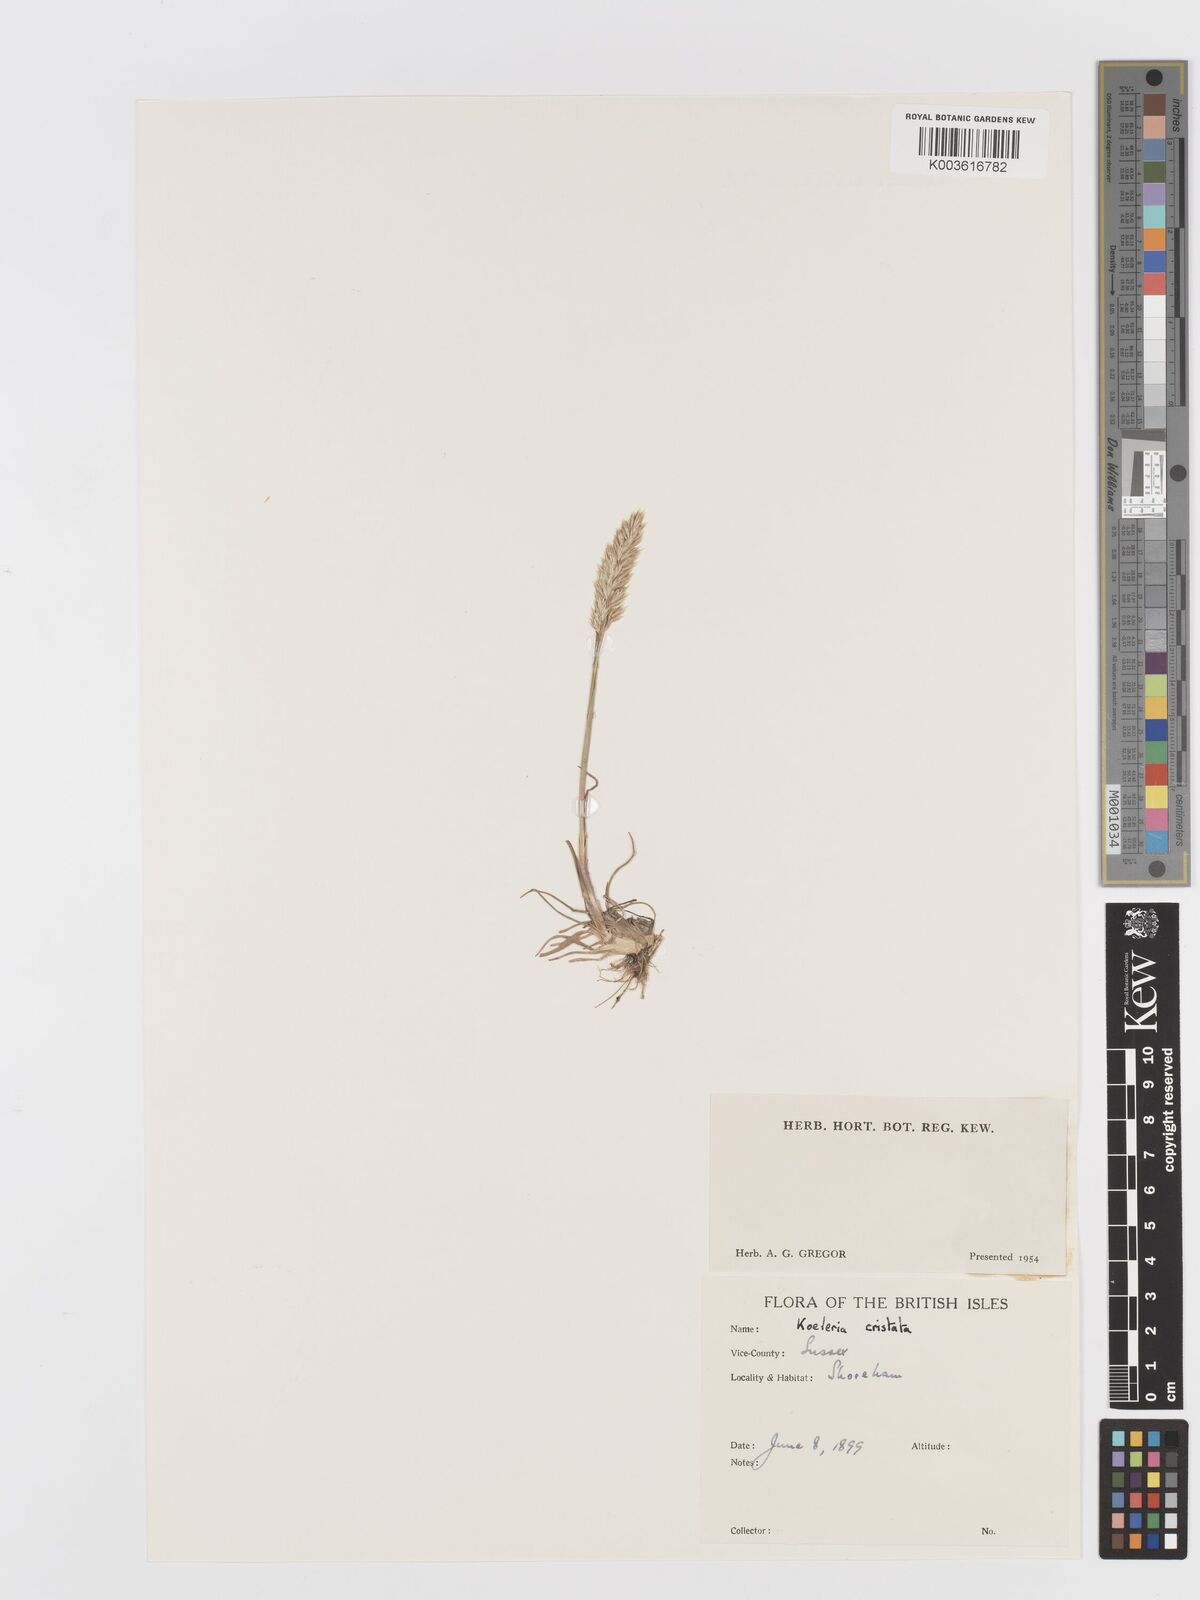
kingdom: Plantae
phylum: Tracheophyta
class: Liliopsida
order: Poales
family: Poaceae
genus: Koeleria
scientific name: Koeleria macrantha
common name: Crested hair-grass
